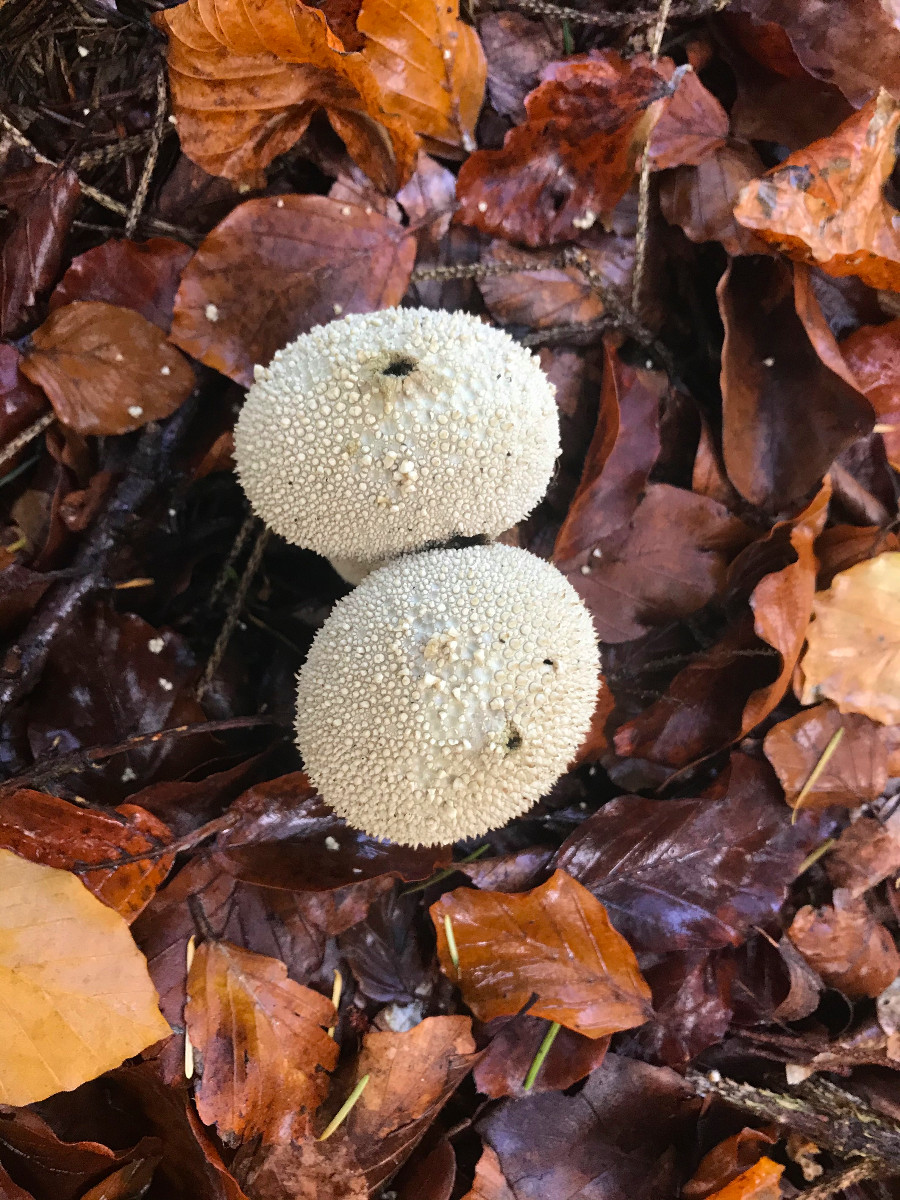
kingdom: Fungi
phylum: Basidiomycota
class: Agaricomycetes
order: Agaricales
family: Lycoperdaceae
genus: Lycoperdon
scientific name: Lycoperdon perlatum
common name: krystal-støvbold
